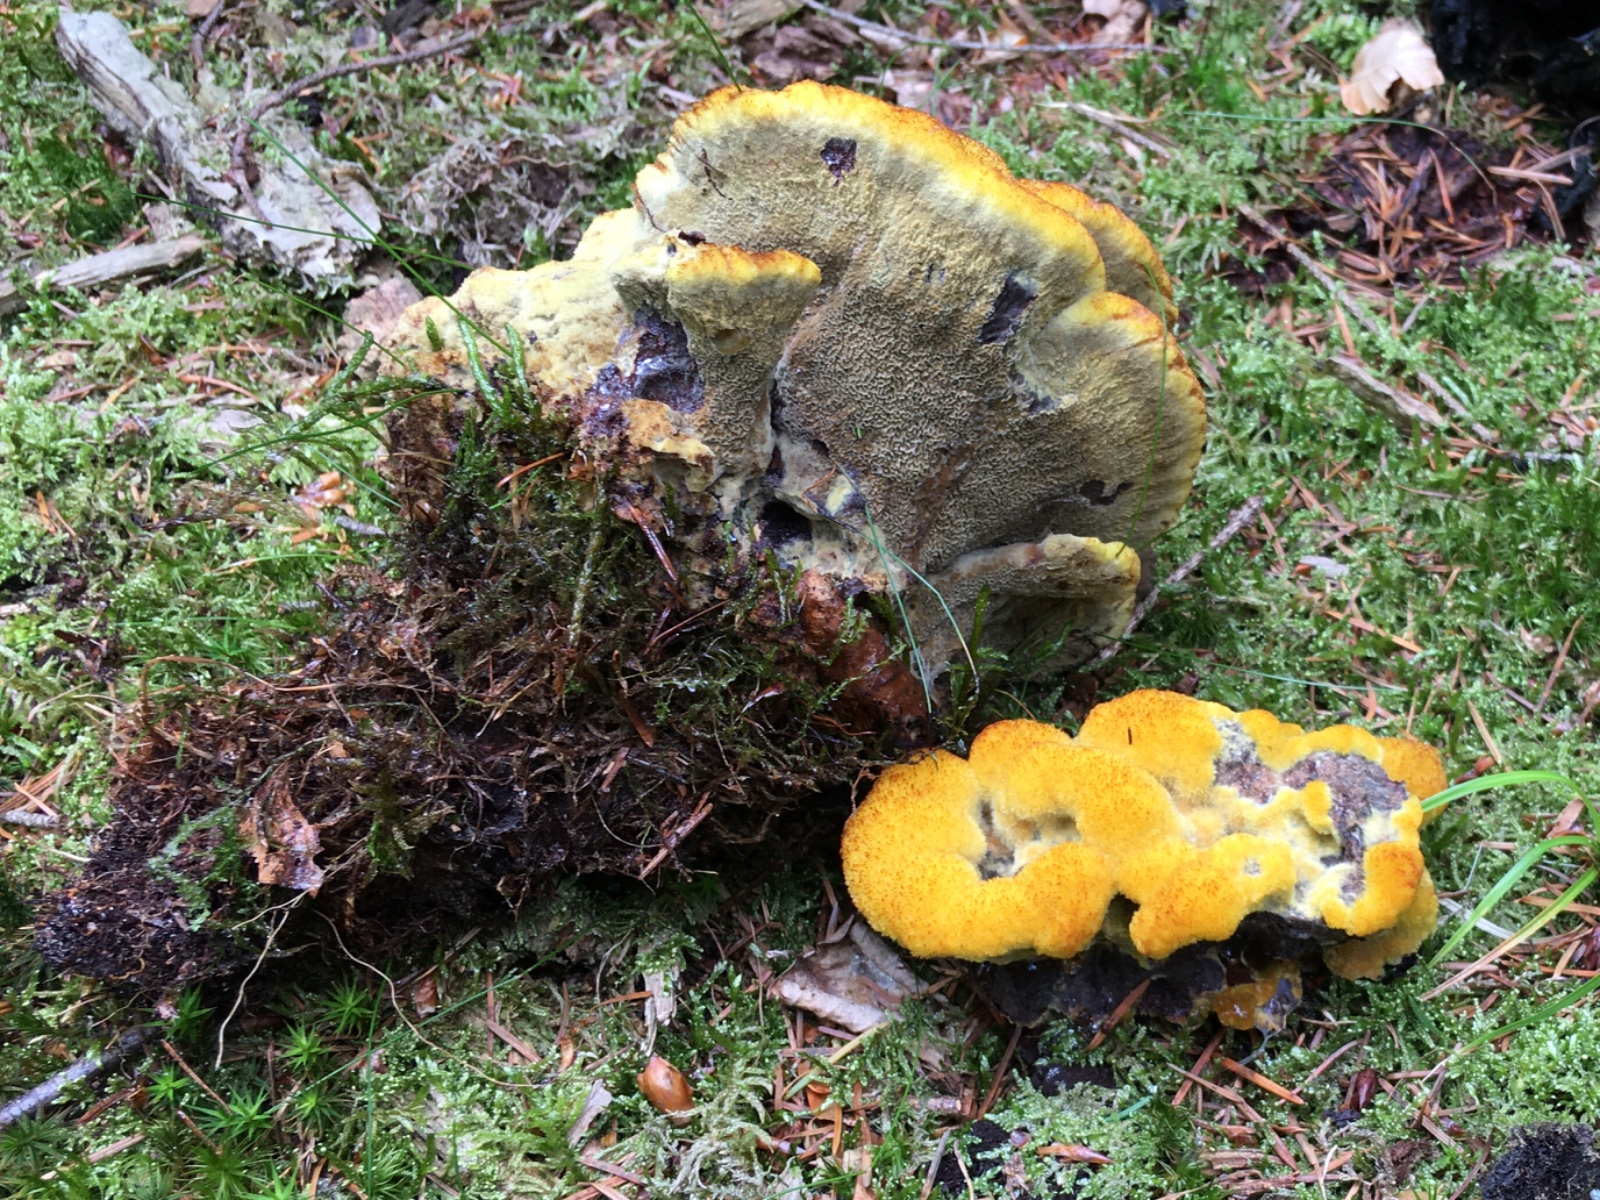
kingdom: Fungi
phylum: Basidiomycota
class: Agaricomycetes
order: Polyporales
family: Laetiporaceae
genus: Phaeolus
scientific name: Phaeolus schweinitzii
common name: brunporesvamp
